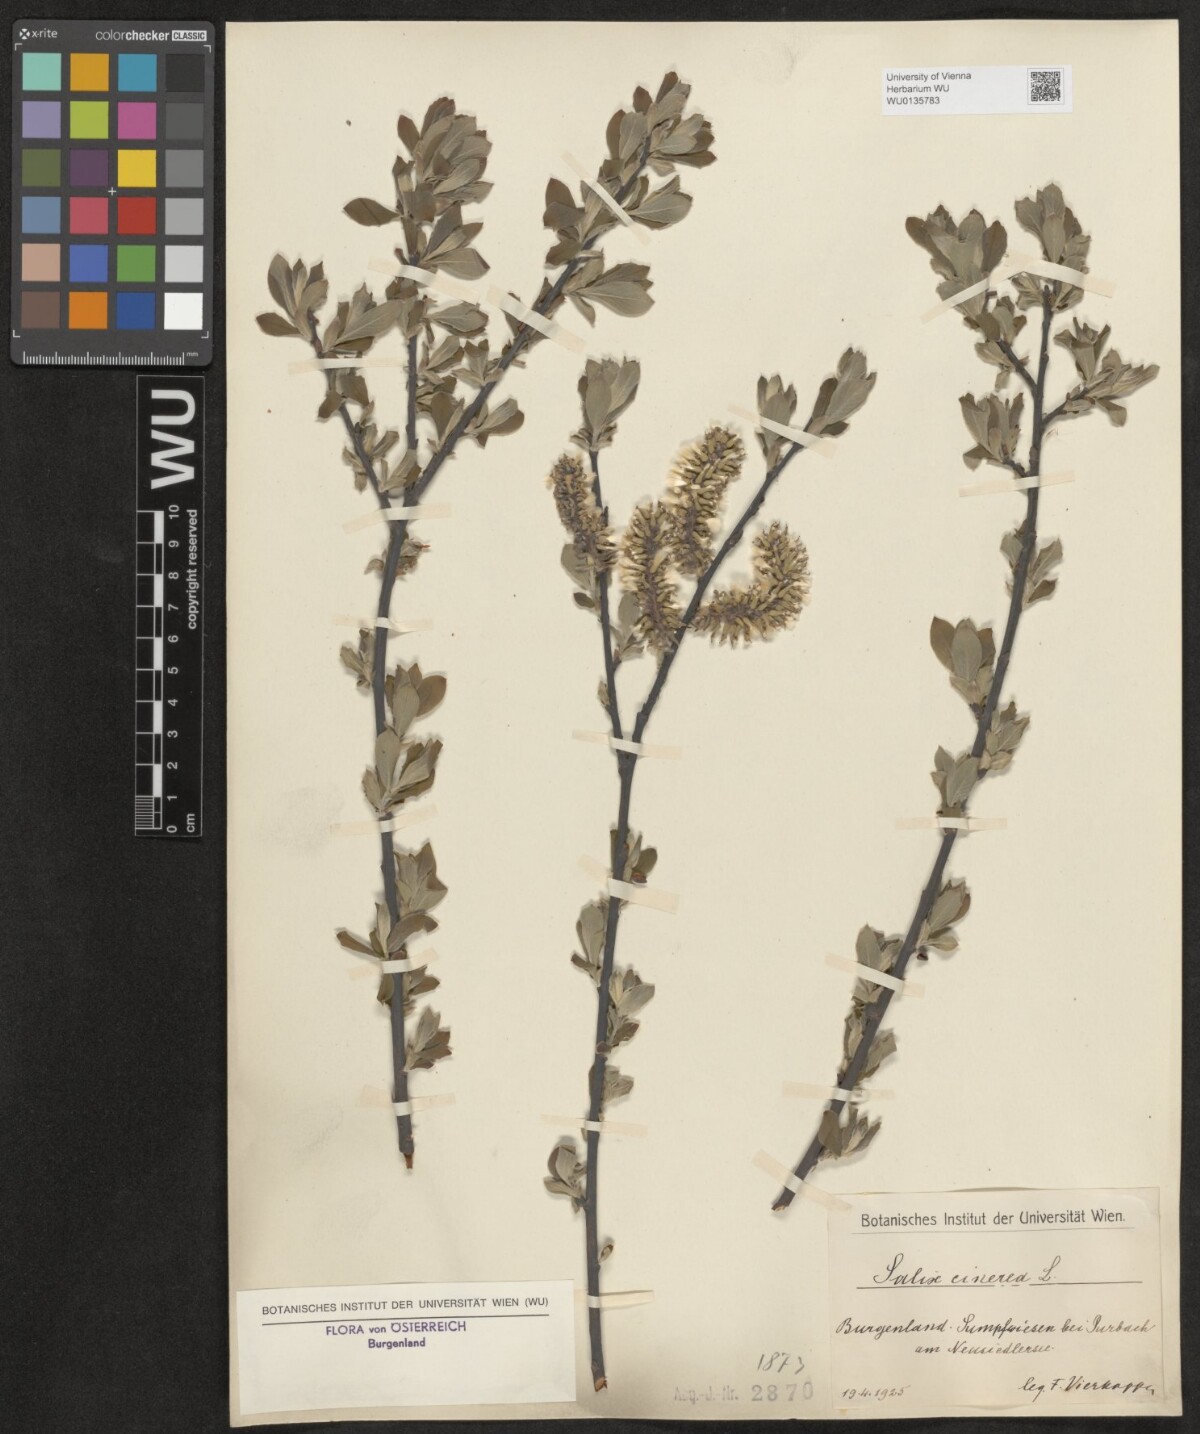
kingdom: Plantae
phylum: Tracheophyta
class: Magnoliopsida
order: Malpighiales
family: Salicaceae
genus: Salix
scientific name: Salix cinerea
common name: Common sallow
